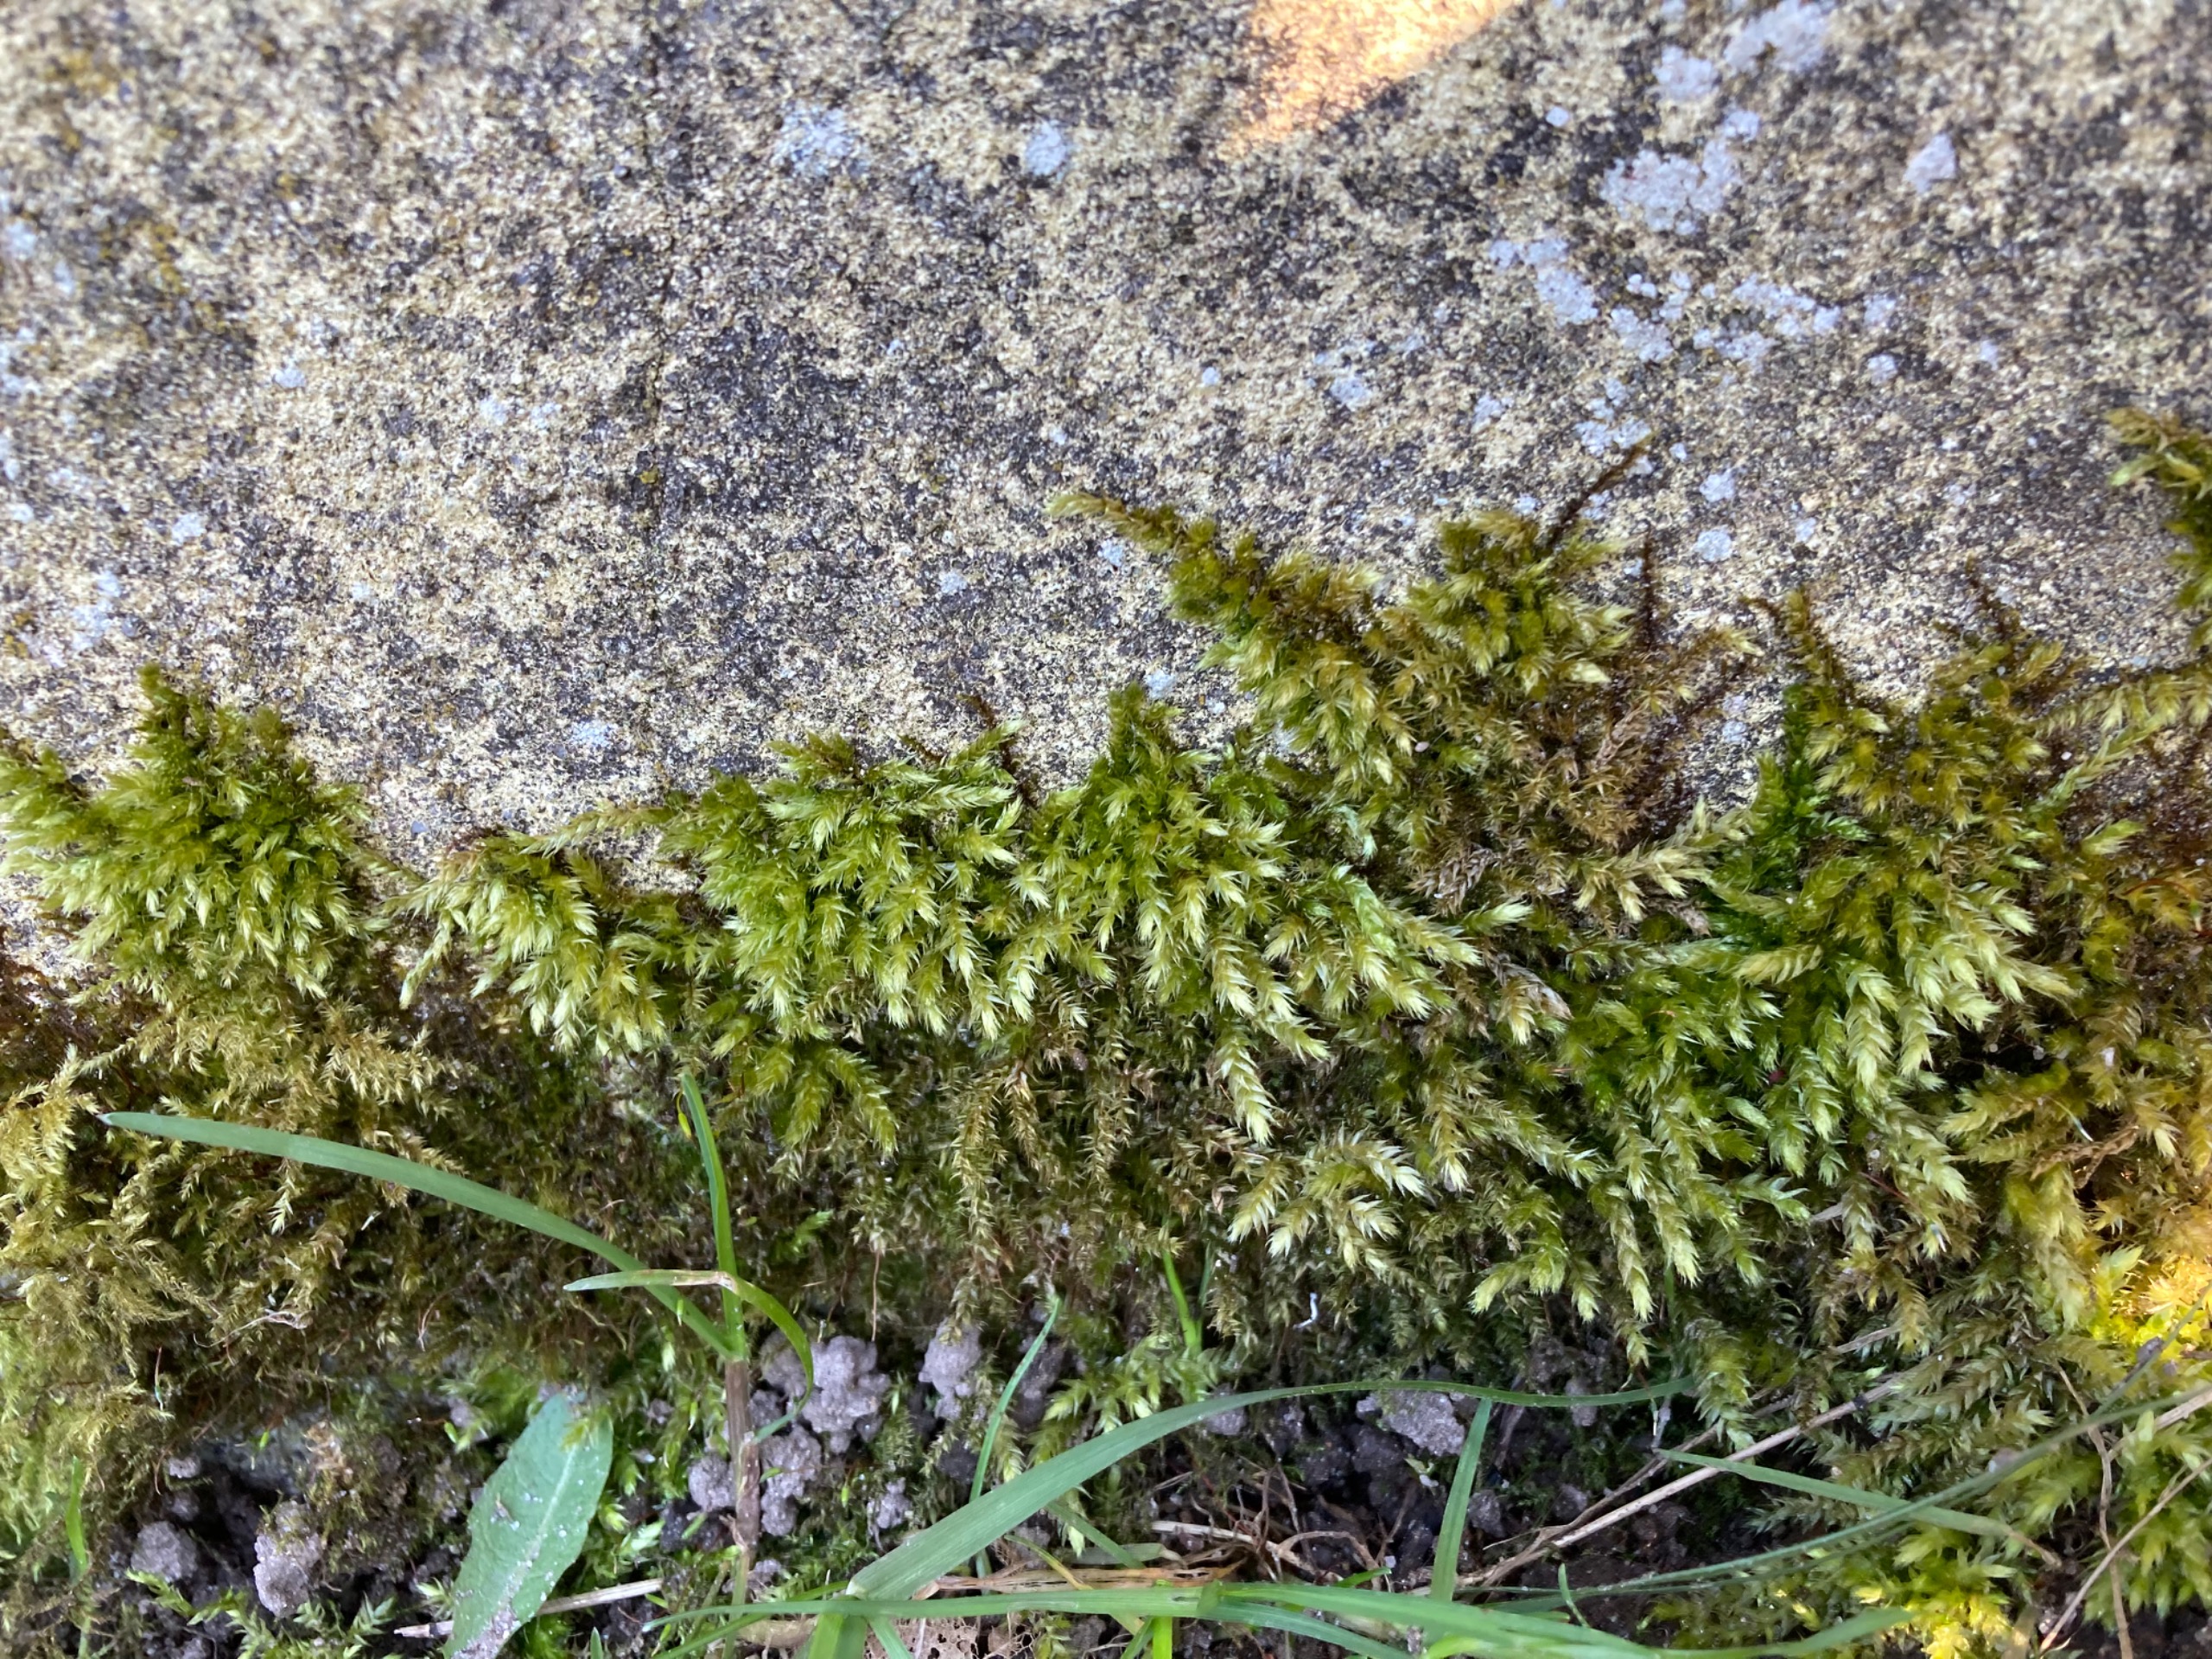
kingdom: Plantae
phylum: Bryophyta
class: Bryopsida
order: Hypnales
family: Brachytheciaceae
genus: Brachythecium
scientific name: Brachythecium rutabulum
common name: Almindelig kortkapsel
